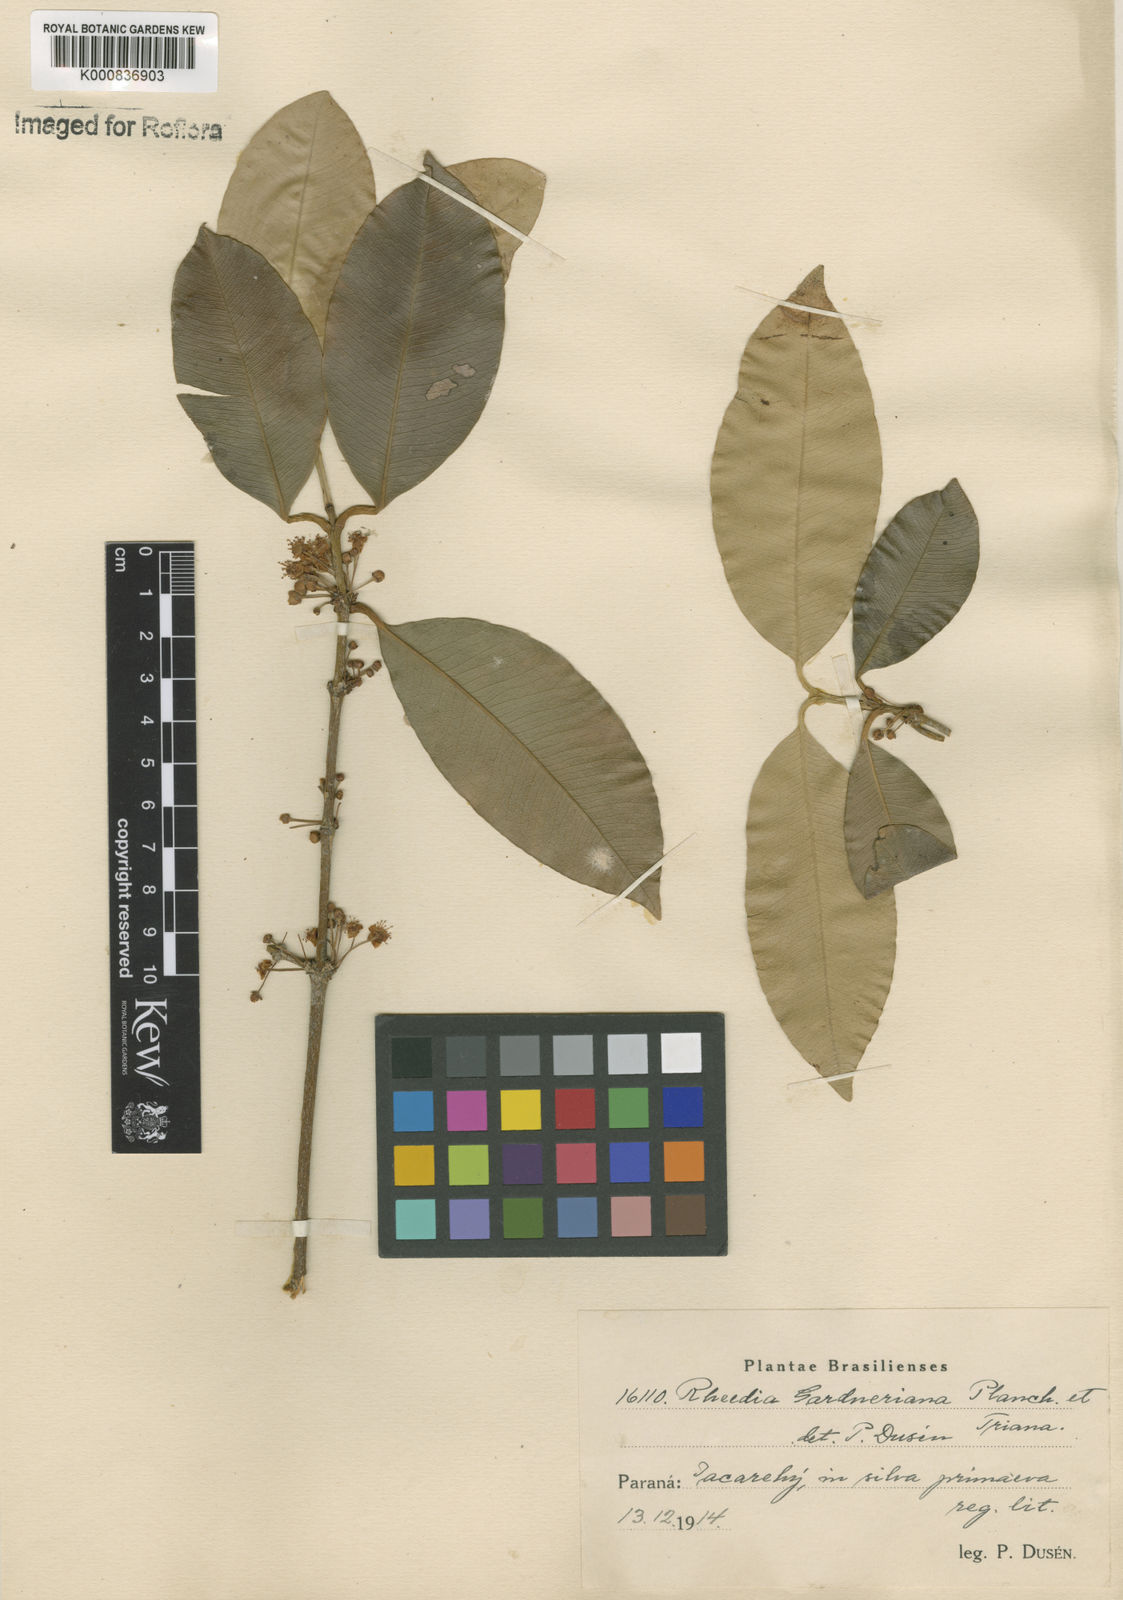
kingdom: Plantae
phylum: Tracheophyta
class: Magnoliopsida
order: Malpighiales
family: Clusiaceae
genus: Garcinia
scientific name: Garcinia gardneriana
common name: Achacha
